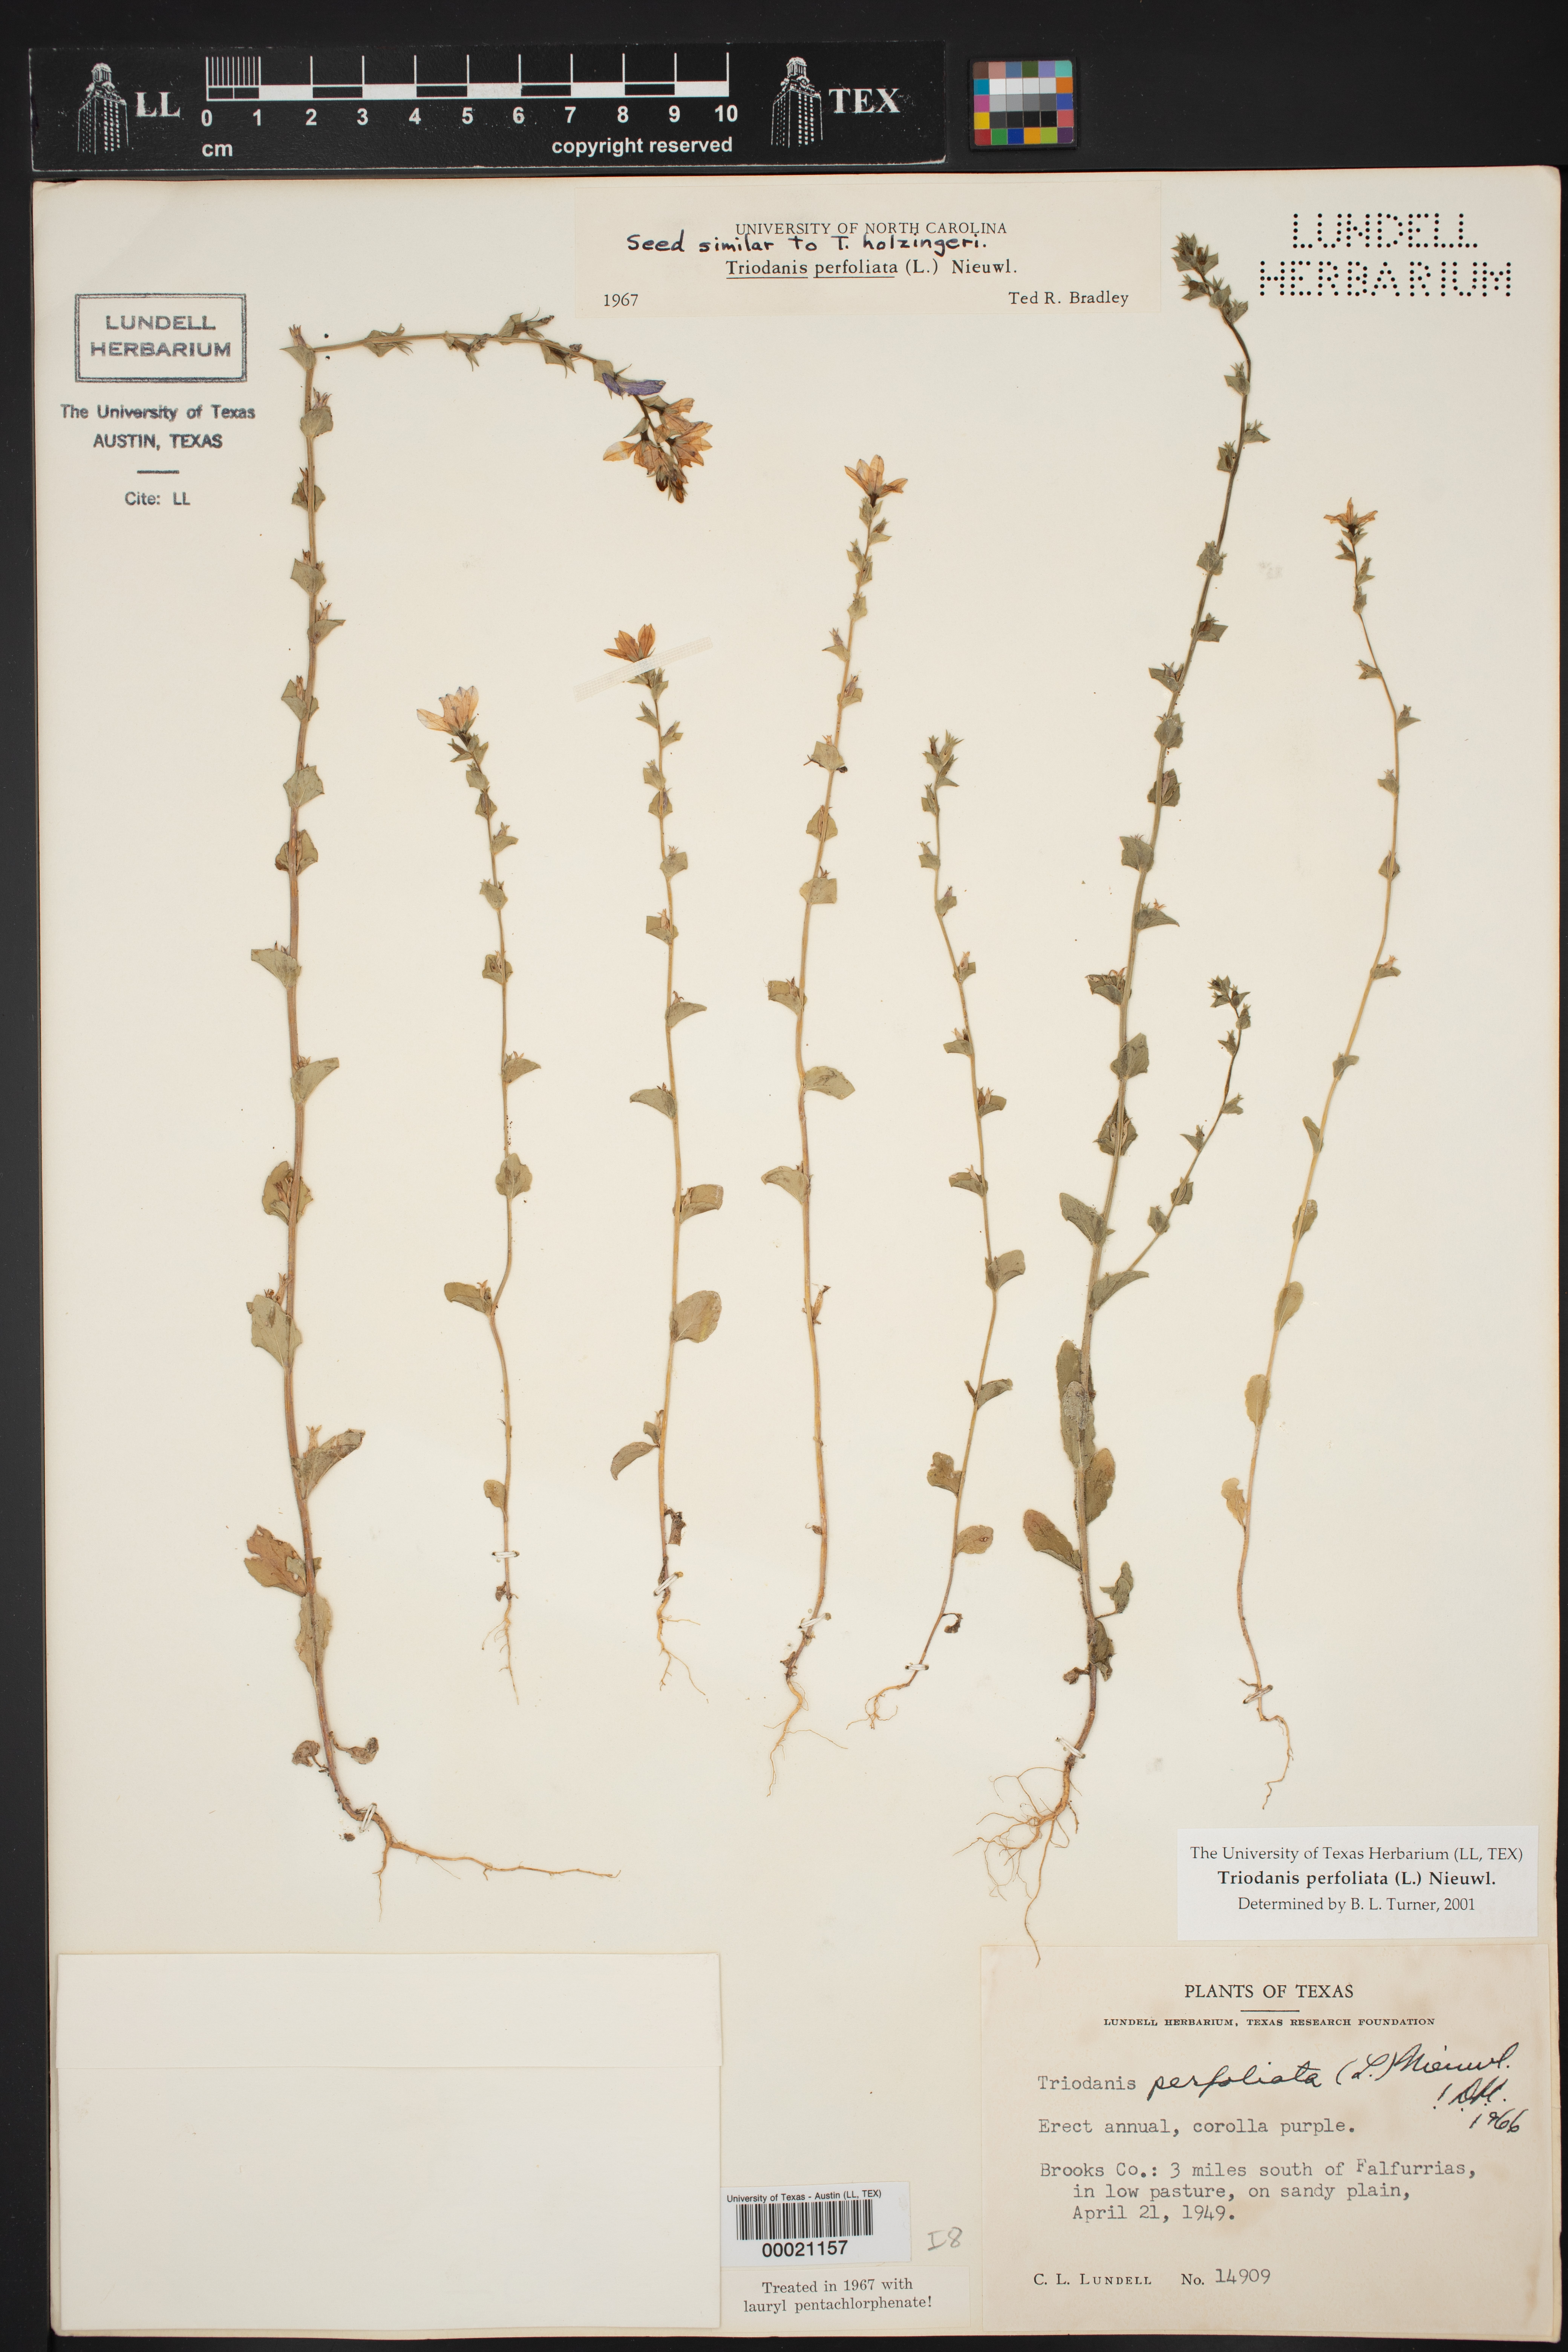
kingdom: Plantae
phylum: Tracheophyta
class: Magnoliopsida
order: Asterales
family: Campanulaceae
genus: Triodanis
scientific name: Triodanis perfoliata
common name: Clasping venus' looking-glass
